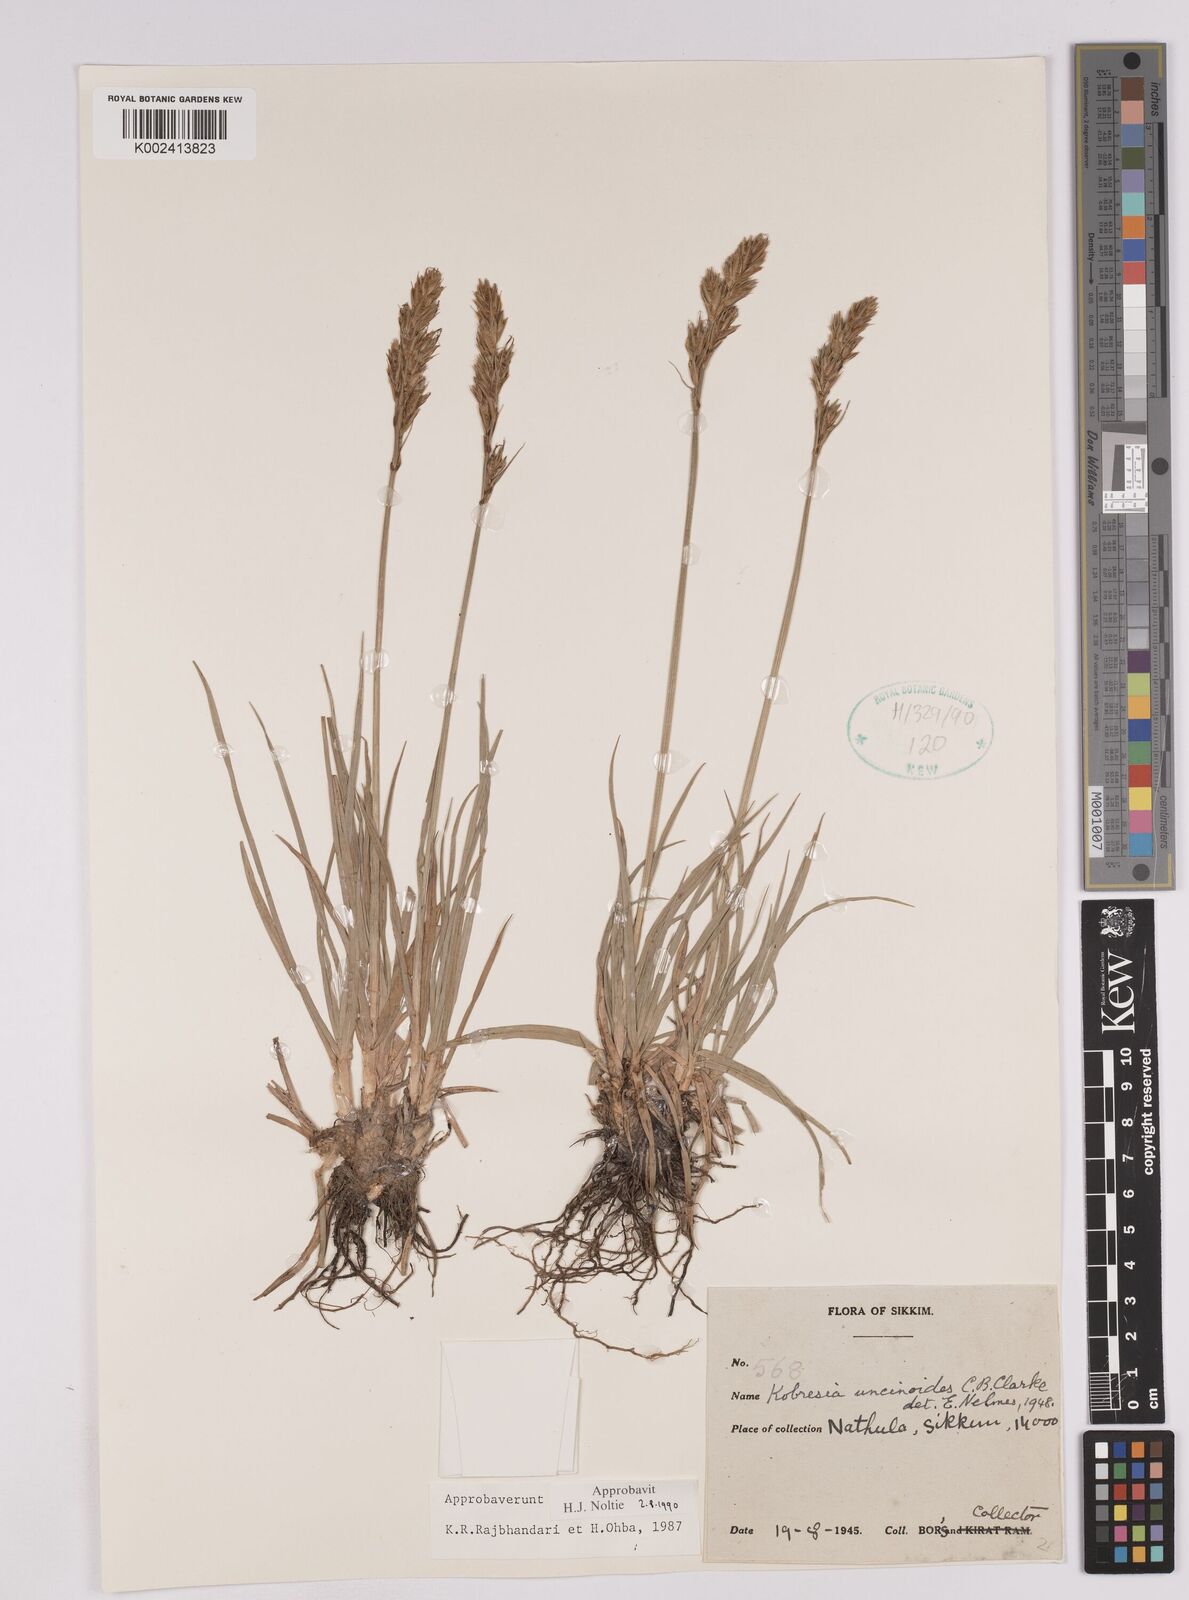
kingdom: Plantae
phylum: Tracheophyta
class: Liliopsida
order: Poales
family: Cyperaceae
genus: Carex
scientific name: Carex uncinioides
